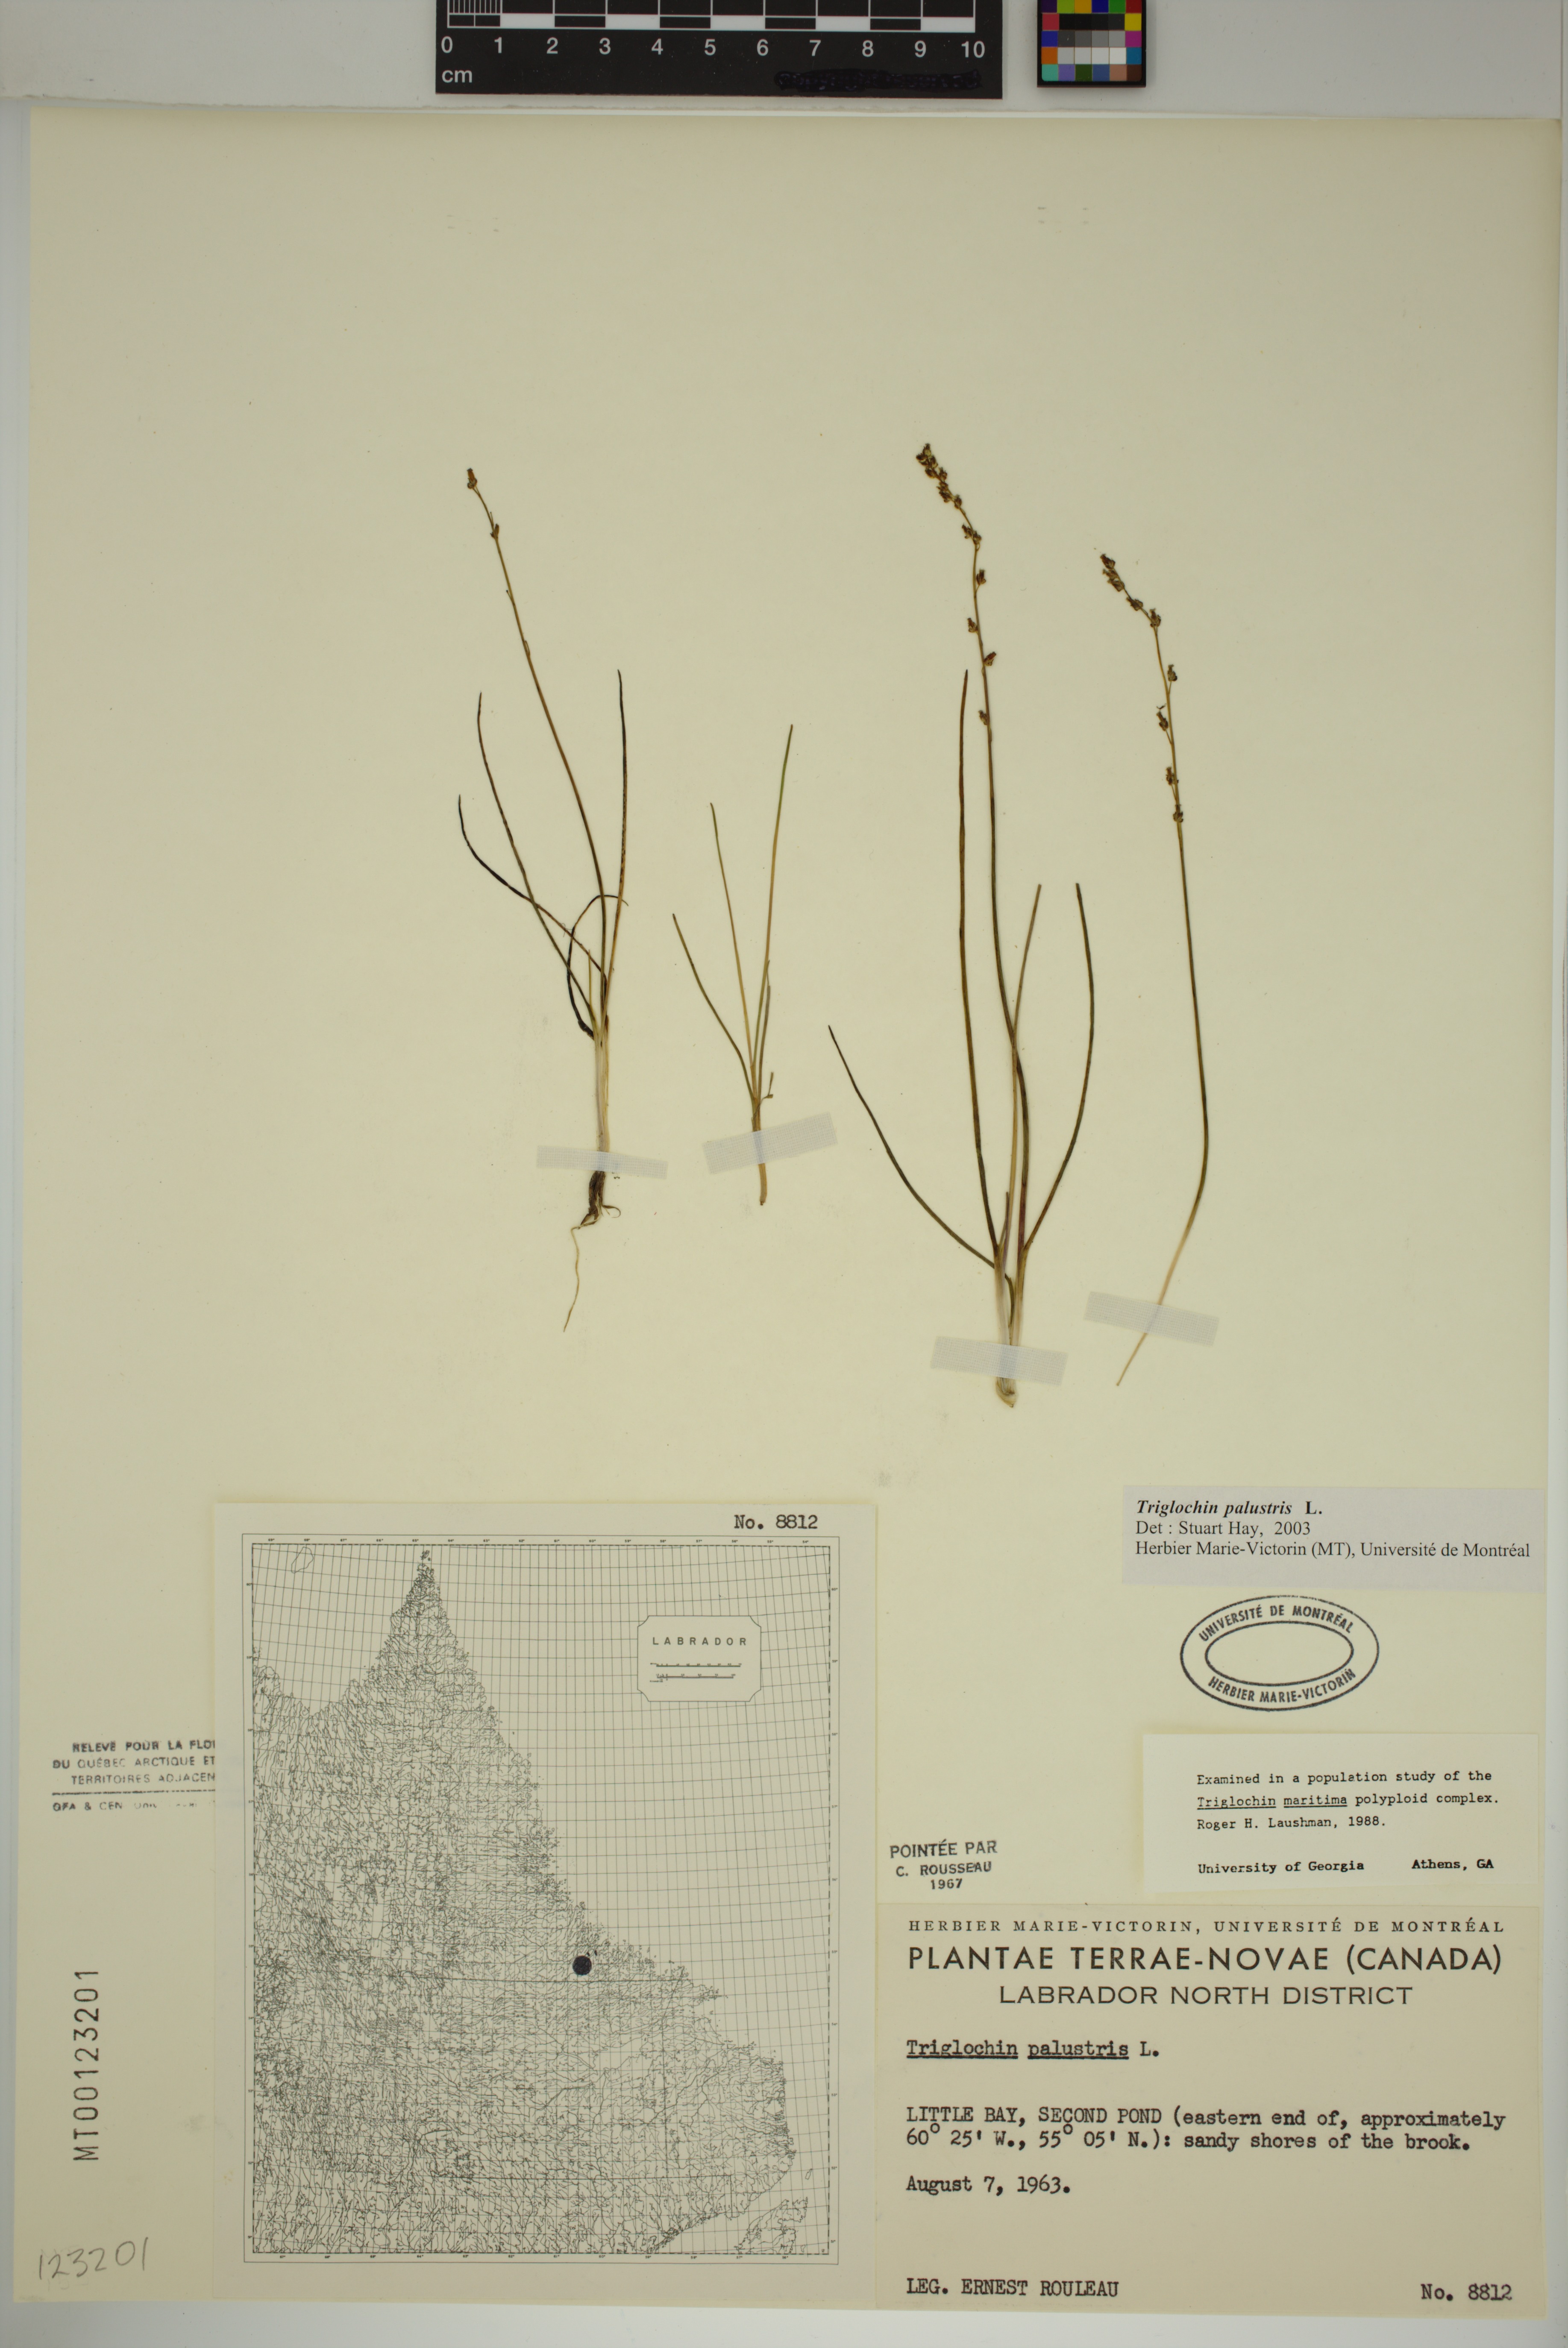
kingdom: Plantae
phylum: Tracheophyta
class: Liliopsida
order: Alismatales
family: Juncaginaceae
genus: Triglochin
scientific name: Triglochin palustris
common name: Marsh arrowgrass
